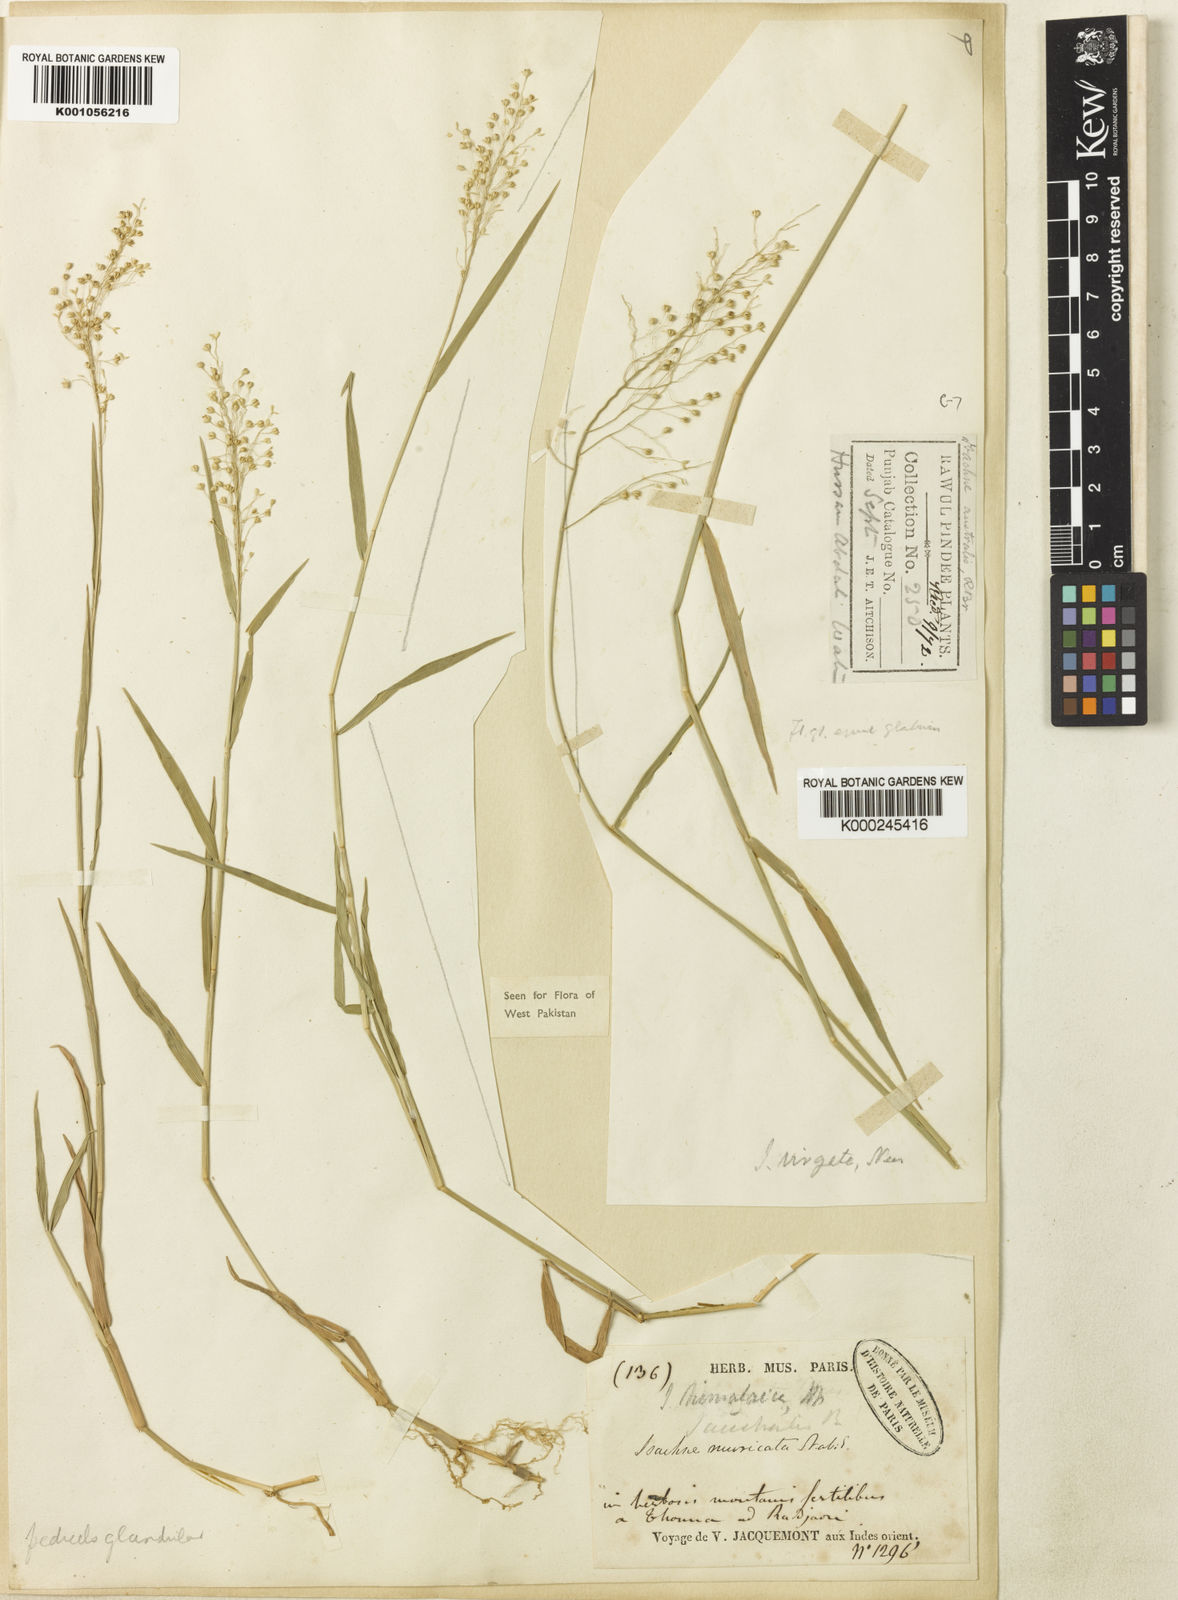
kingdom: Plantae
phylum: Tracheophyta
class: Liliopsida
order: Poales
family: Poaceae
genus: Isachne
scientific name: Isachne himalaica
